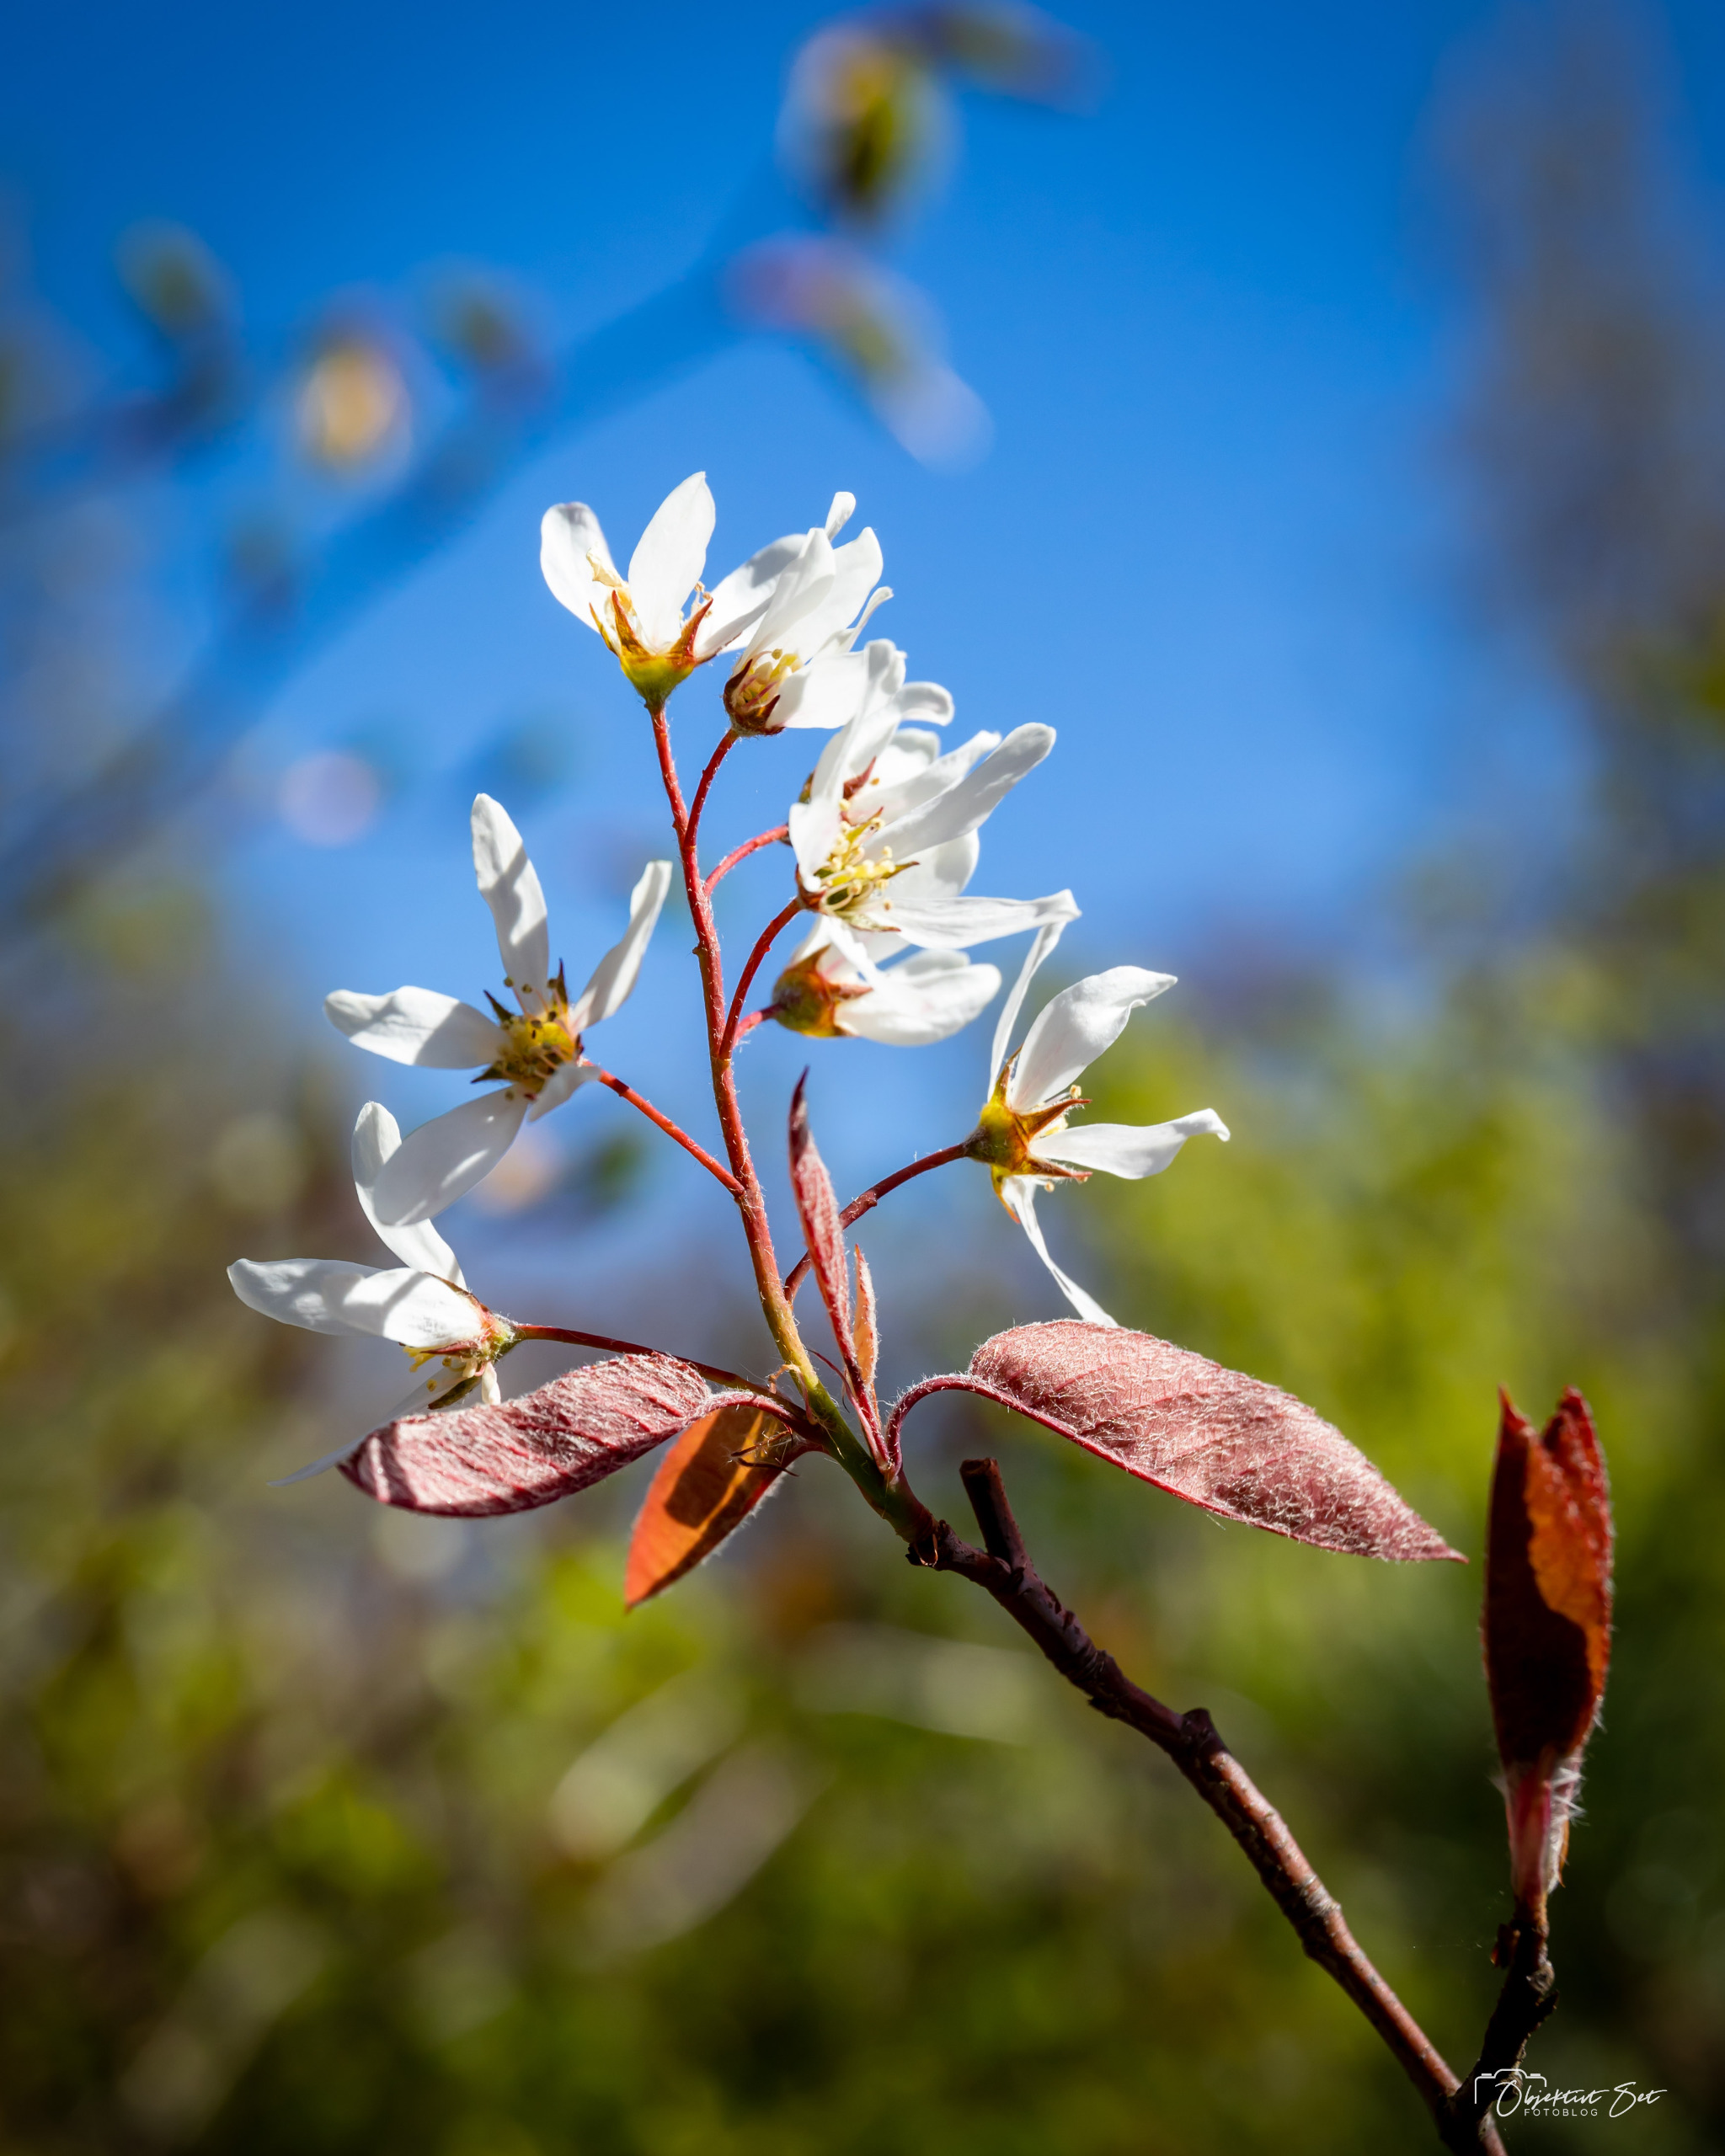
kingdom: Plantae
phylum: Tracheophyta
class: Magnoliopsida
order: Rosales
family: Rosaceae
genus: Amelanchier
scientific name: Amelanchier lamarckii
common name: Bærmispel
